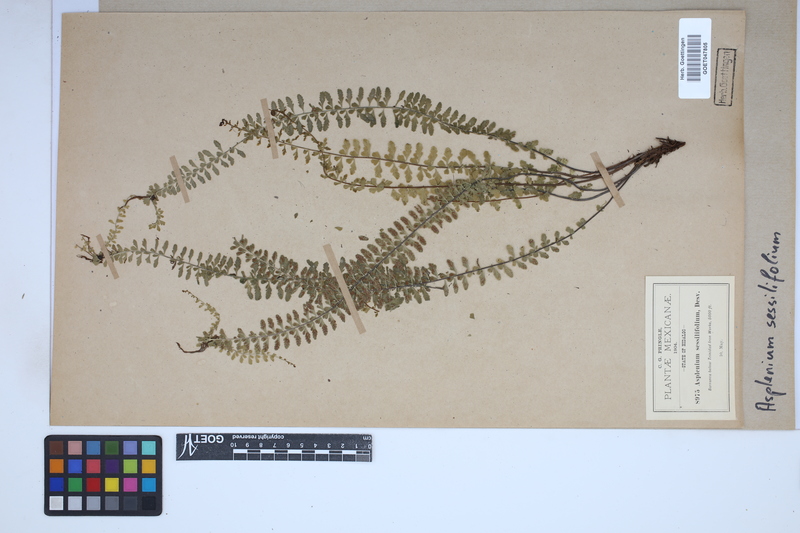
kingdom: Plantae
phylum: Tracheophyta
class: Polypodiopsida
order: Polypodiales
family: Aspleniaceae
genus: Asplenium
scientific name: Asplenium sessilifolium
